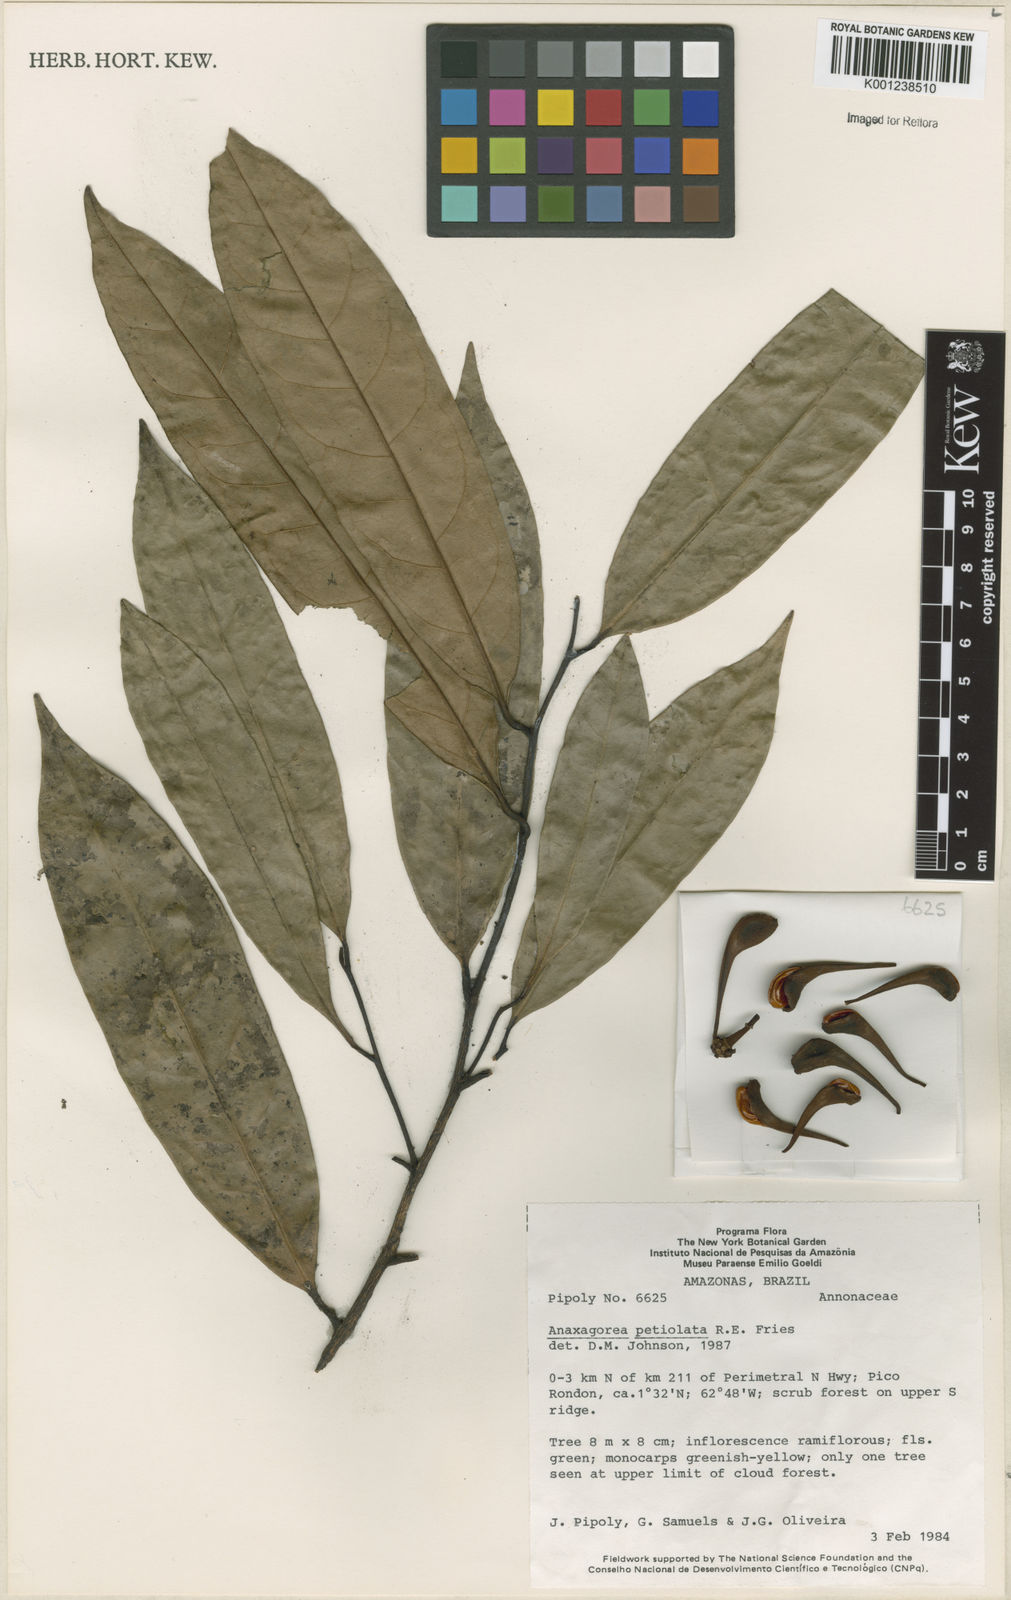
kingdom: Plantae
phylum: Tracheophyta
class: Magnoliopsida
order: Magnoliales
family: Annonaceae
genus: Anaxagorea
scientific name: Anaxagorea petiolata
